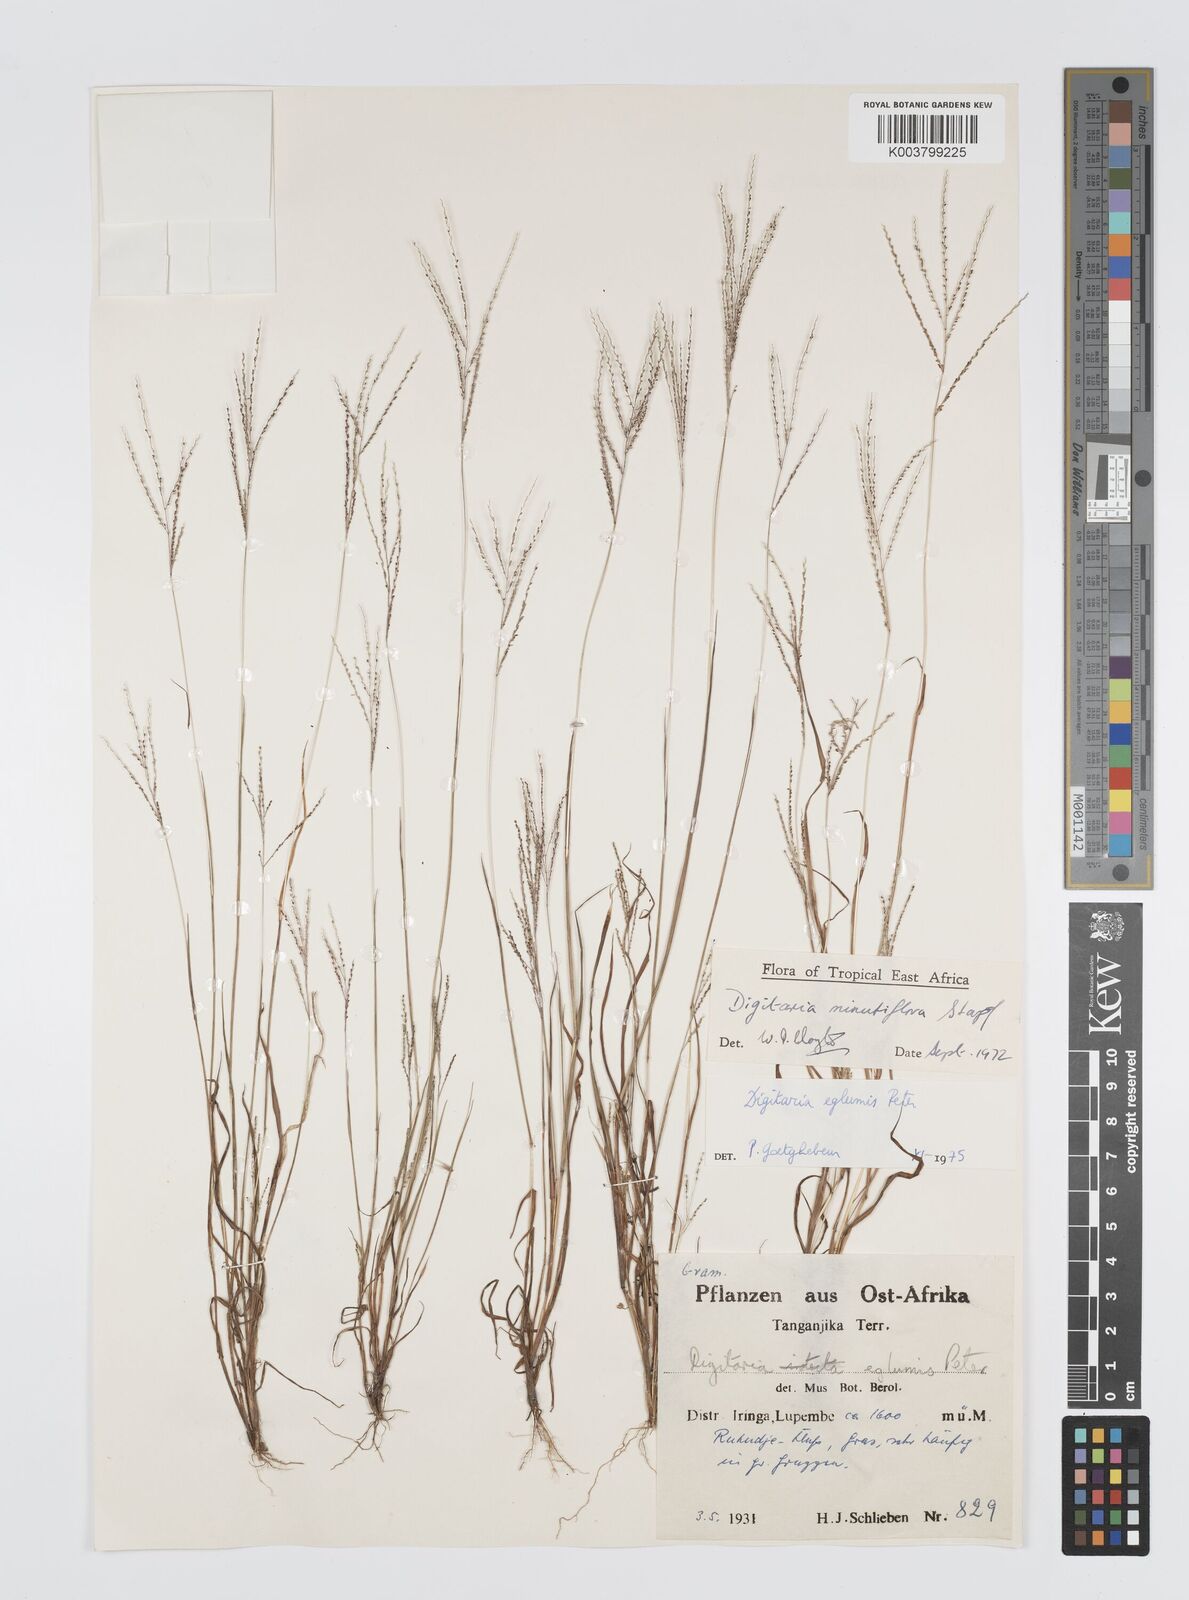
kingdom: Plantae
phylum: Tracheophyta
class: Liliopsida
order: Poales
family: Poaceae
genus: Digitaria
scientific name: Digitaria pseudodiagonalis
